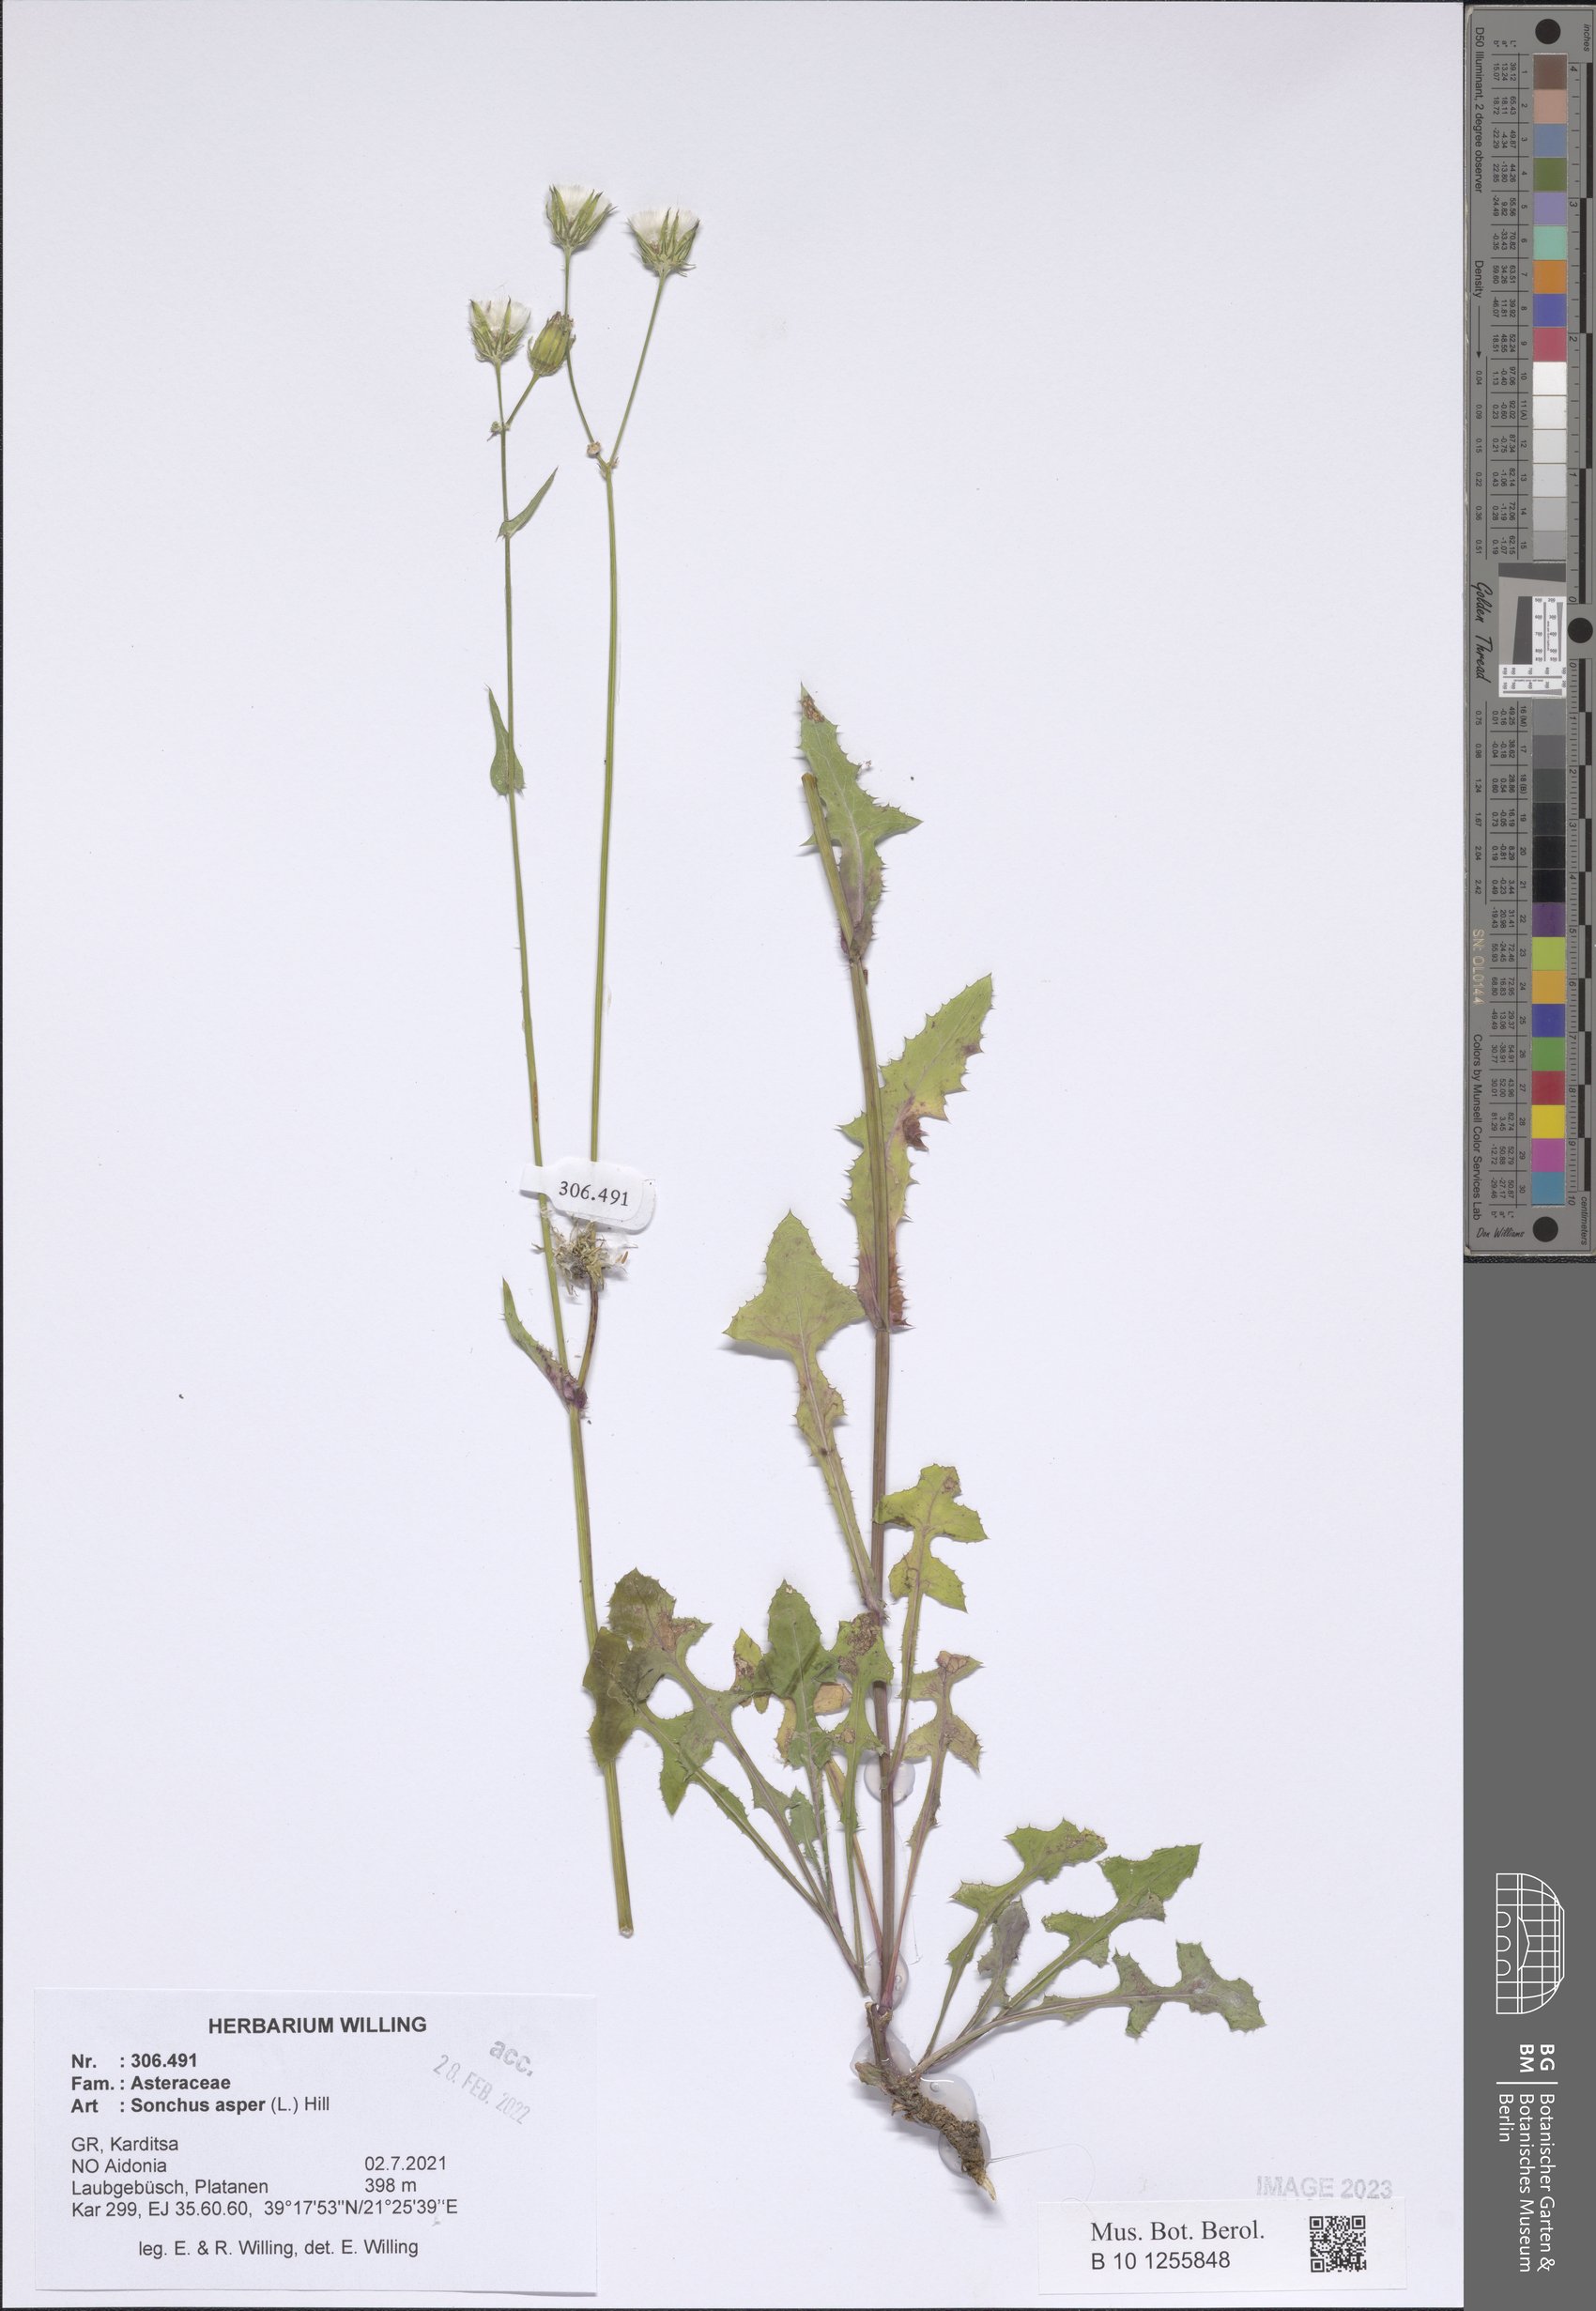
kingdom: Plantae
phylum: Tracheophyta
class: Magnoliopsida
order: Asterales
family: Asteraceae
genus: Sonchus
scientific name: Sonchus asper
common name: Prickly sow-thistle
